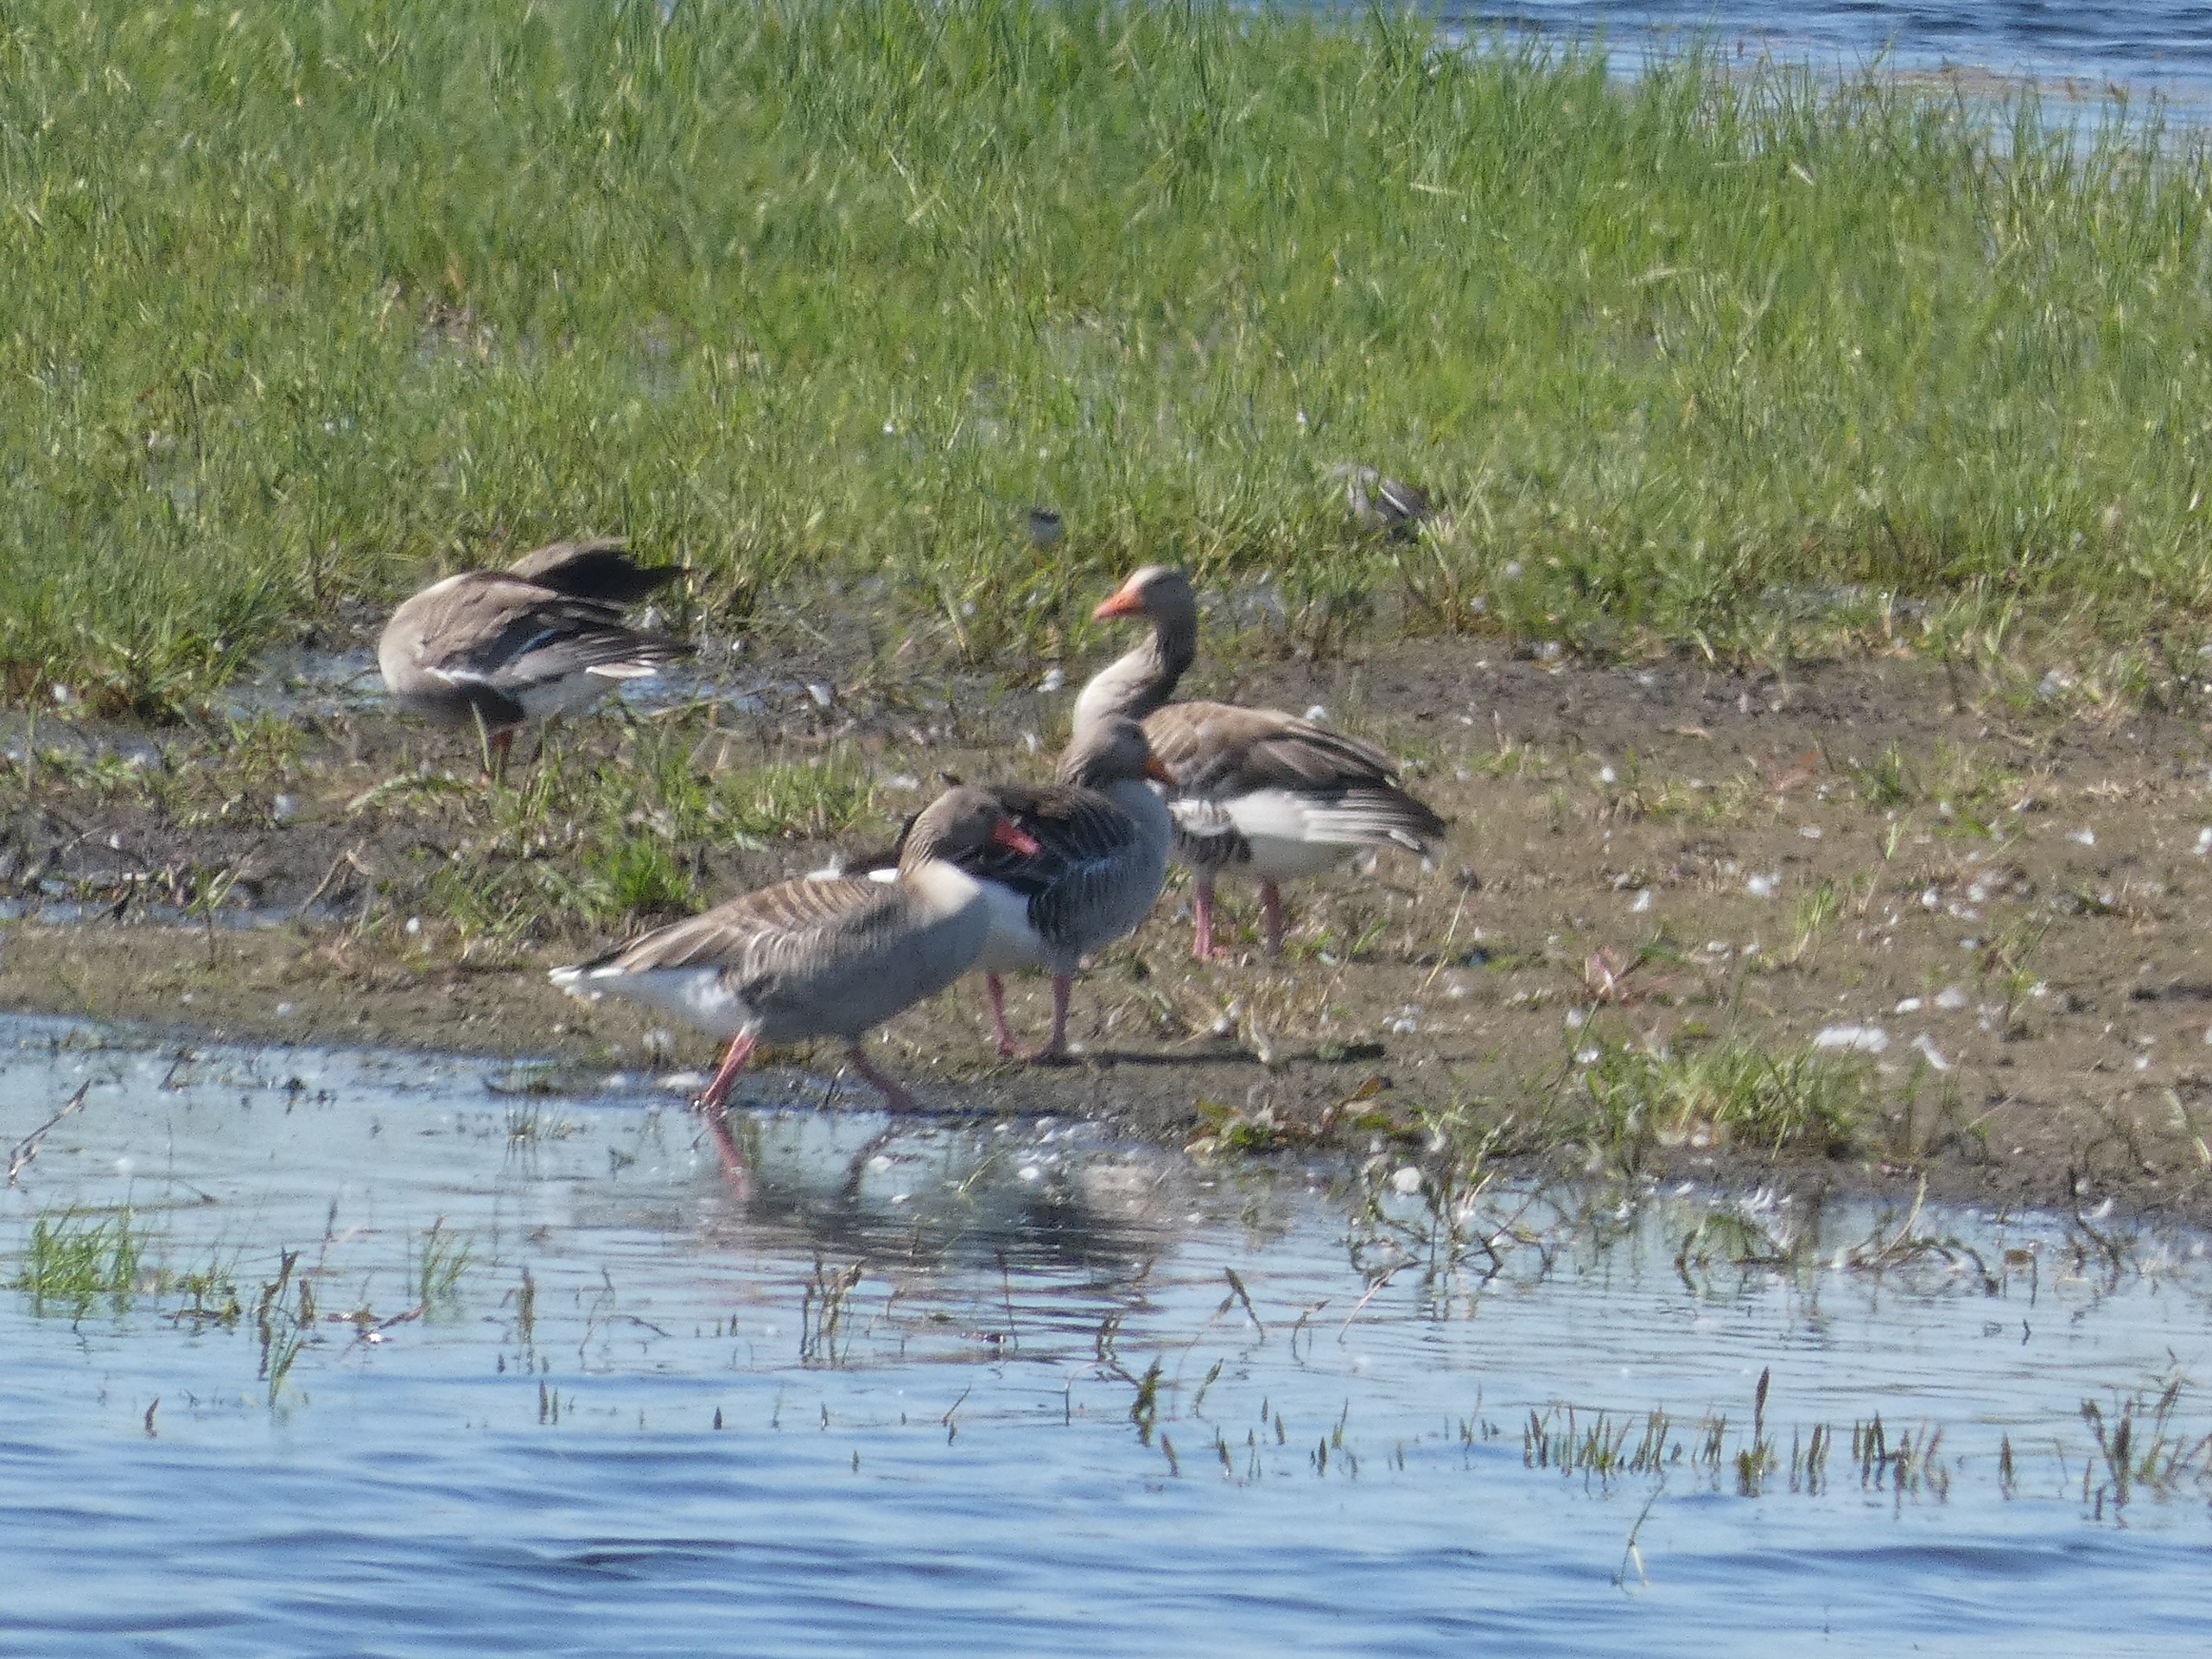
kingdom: Animalia
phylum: Chordata
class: Aves
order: Anseriformes
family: Anatidae
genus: Anser
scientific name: Anser anser
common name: Grågås
